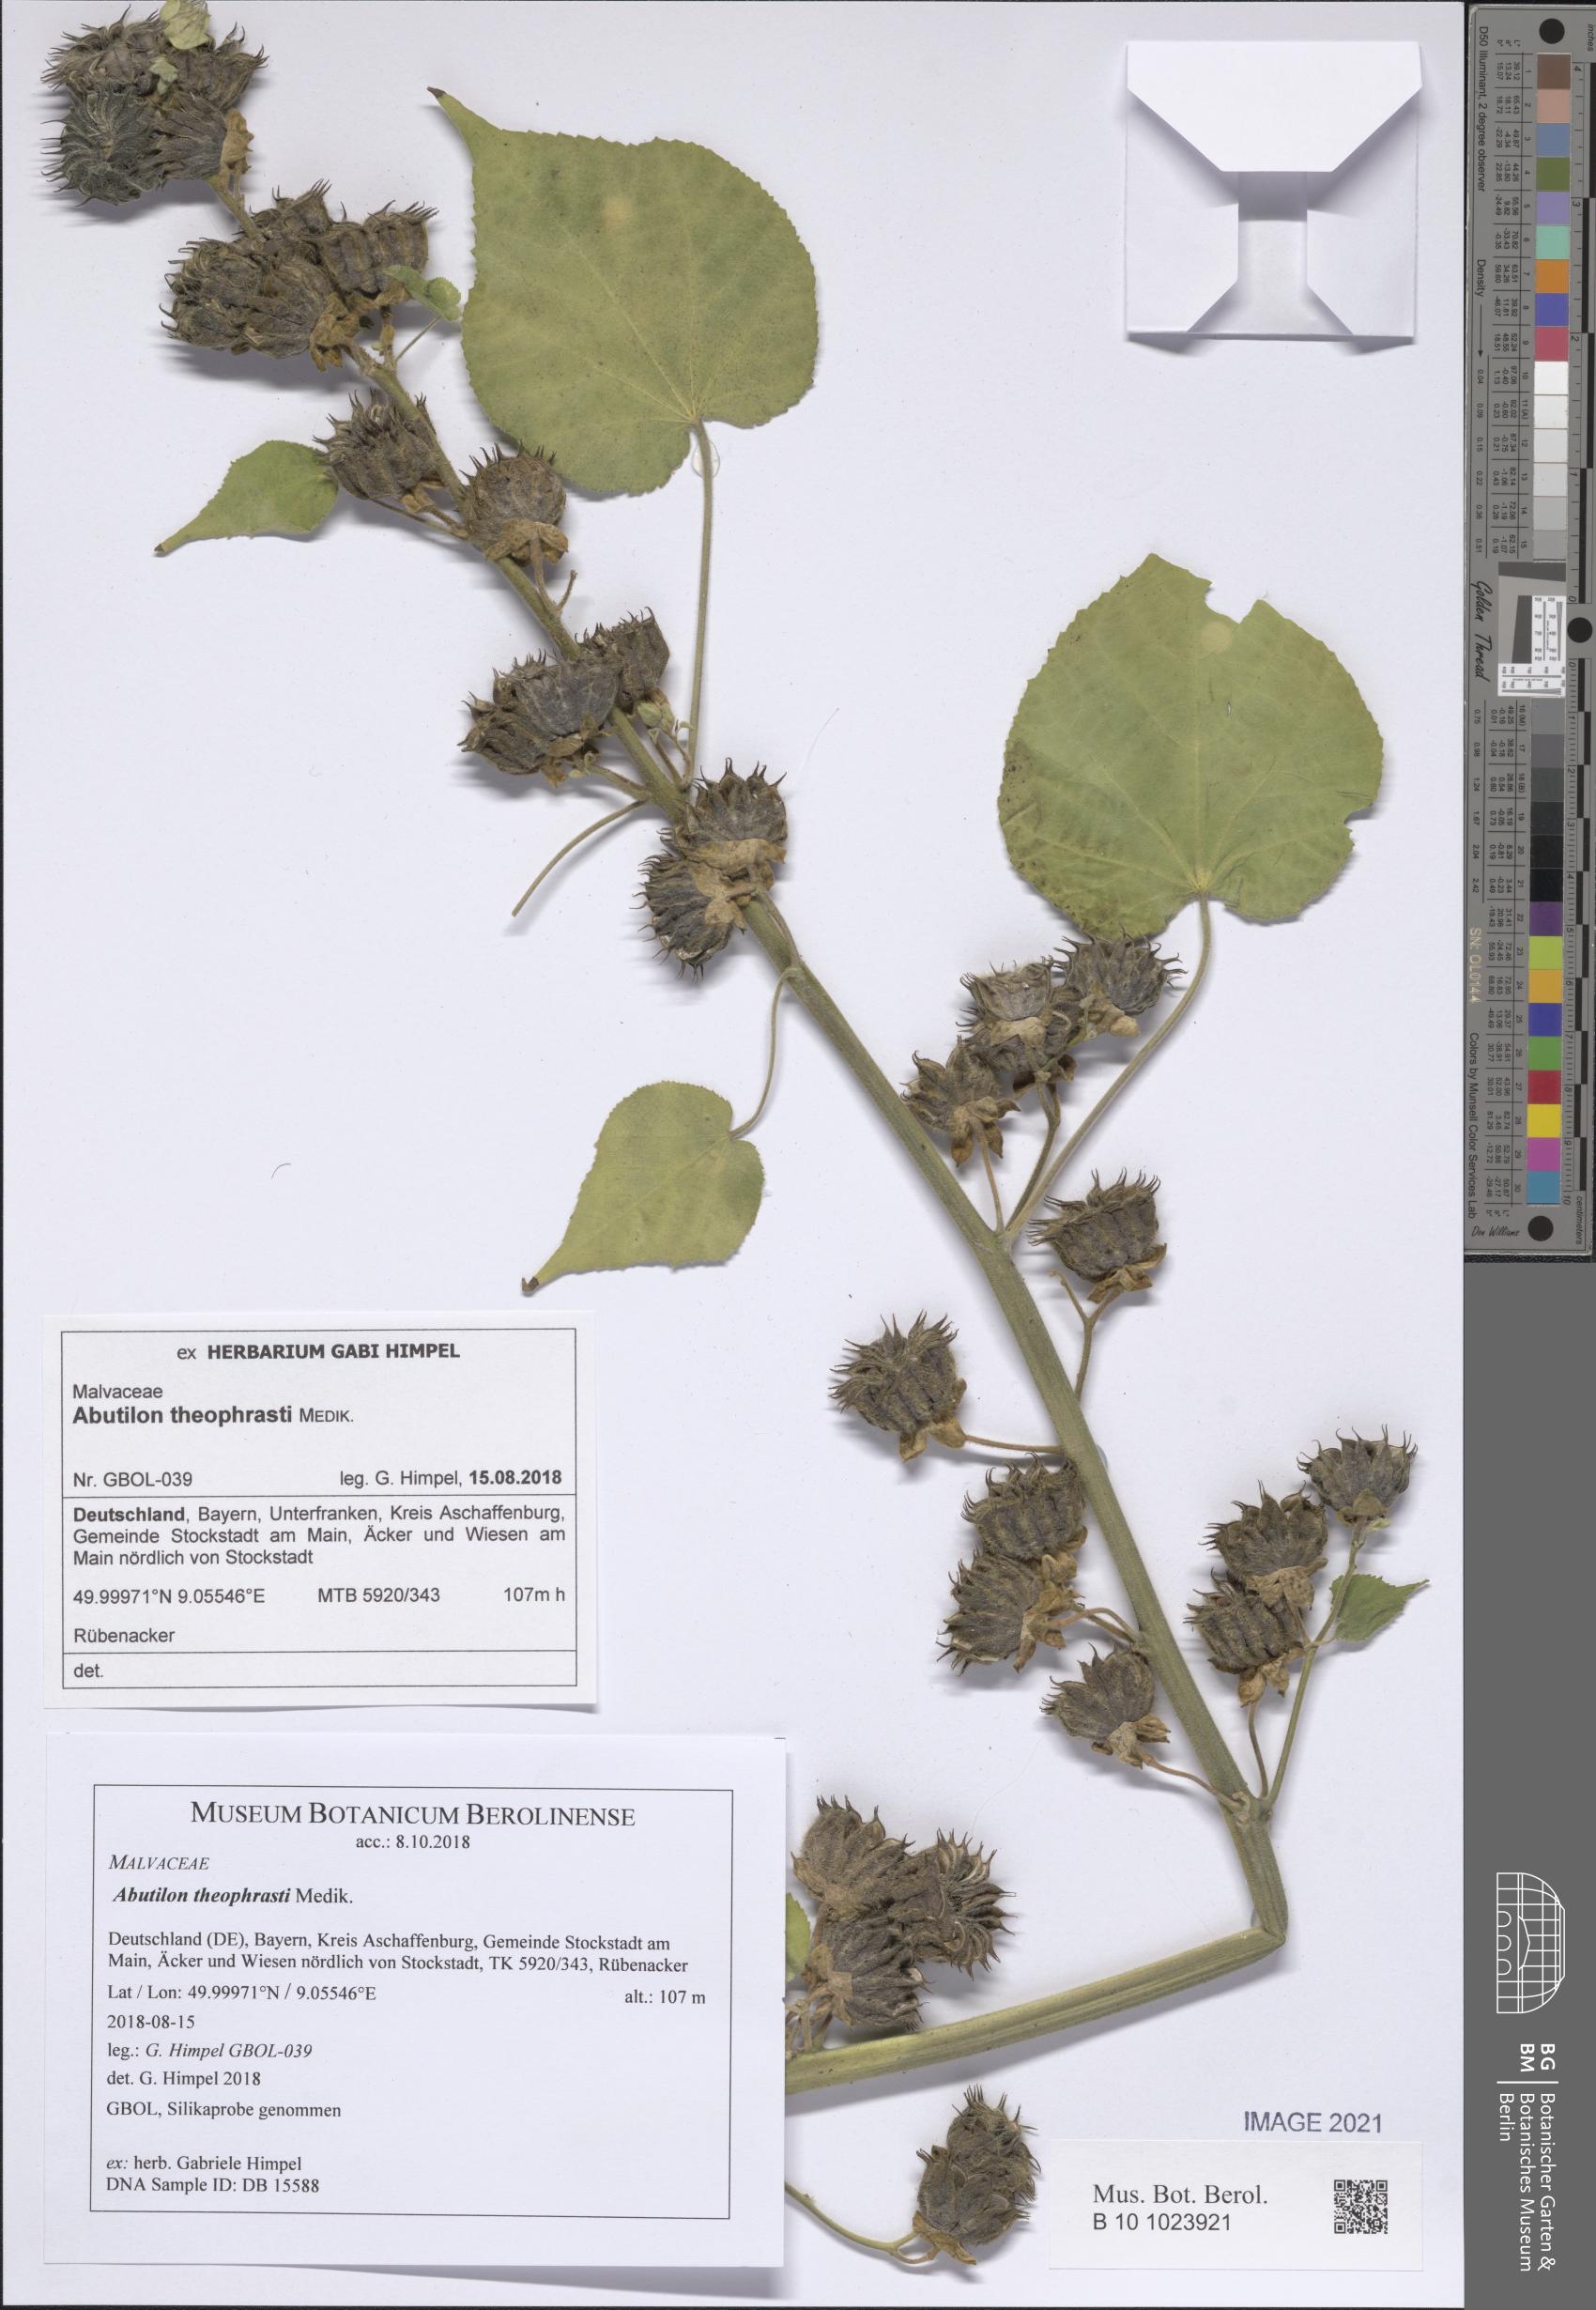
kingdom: Plantae
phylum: Tracheophyta
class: Magnoliopsida
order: Malvales
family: Malvaceae
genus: Abutilon
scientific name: Abutilon theophrasti
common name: Velvetleaf
